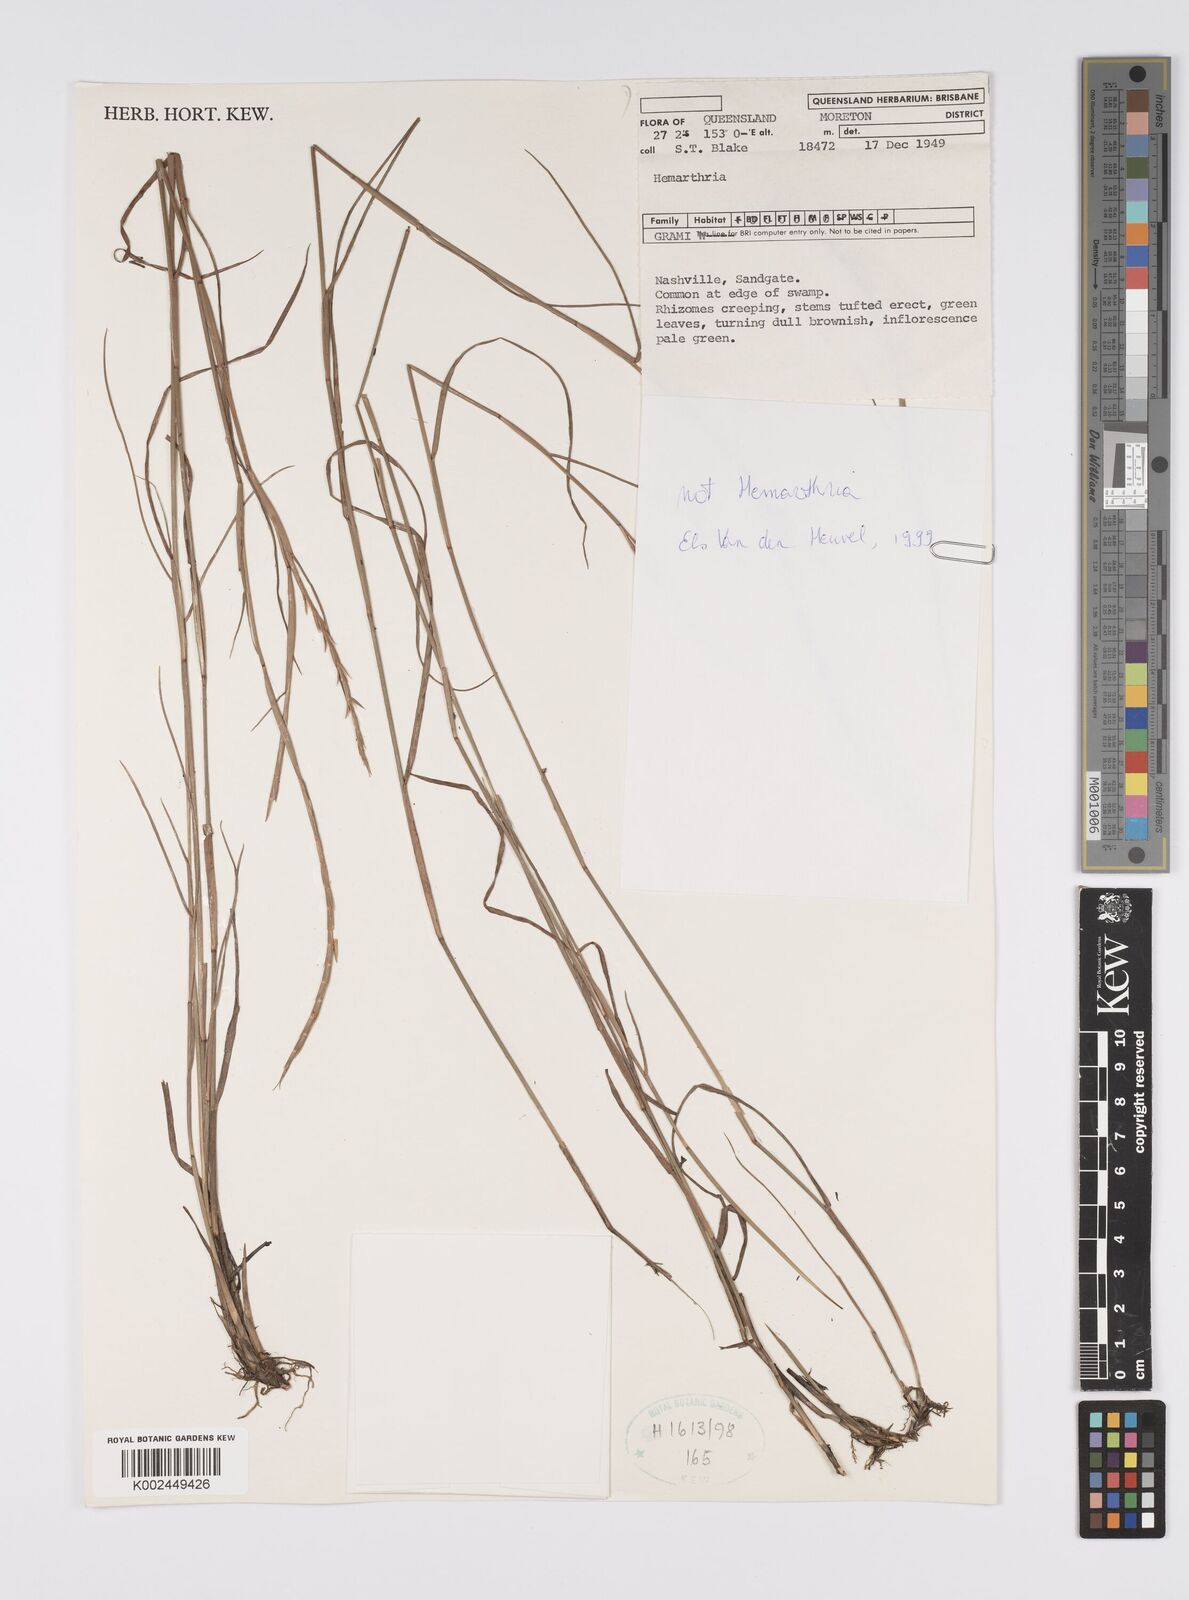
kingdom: Plantae
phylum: Tracheophyta
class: Liliopsida
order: Poales
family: Poaceae
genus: Hemarthria
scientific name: Hemarthria
